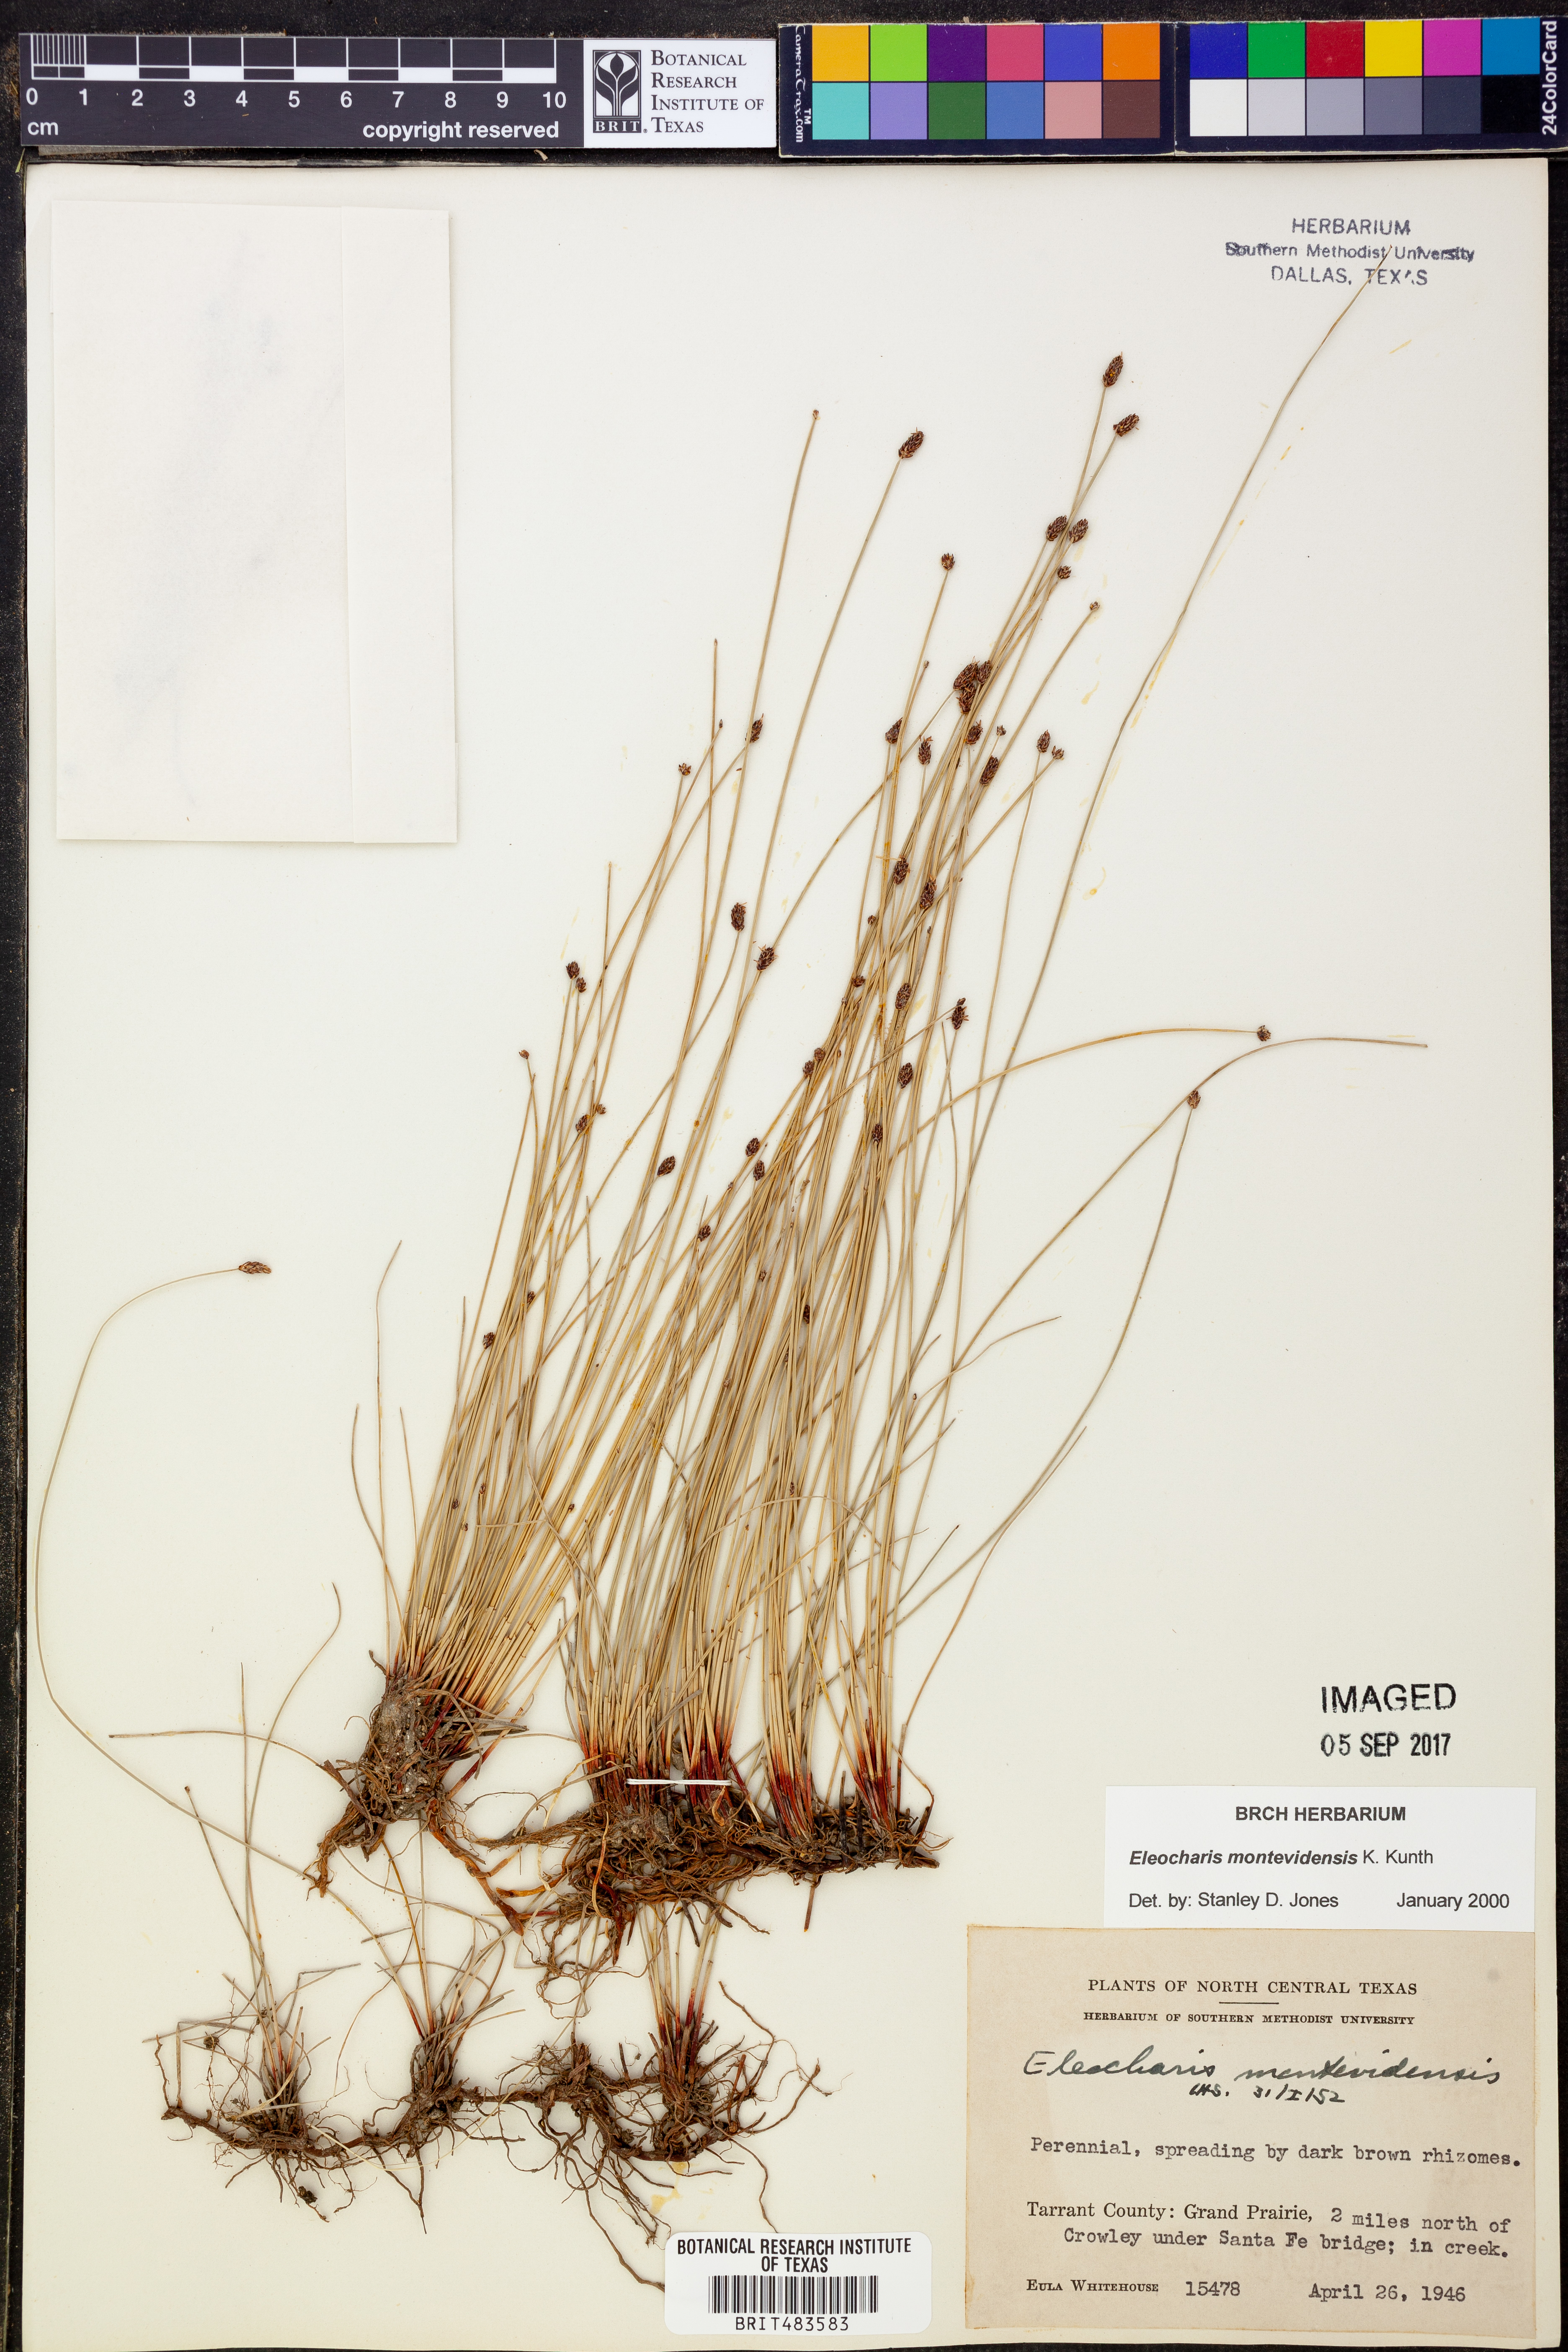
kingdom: Plantae
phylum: Tracheophyta
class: Liliopsida
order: Poales
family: Cyperaceae
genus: Eleocharis
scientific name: Eleocharis montevidensis
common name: Sand spike-rush
